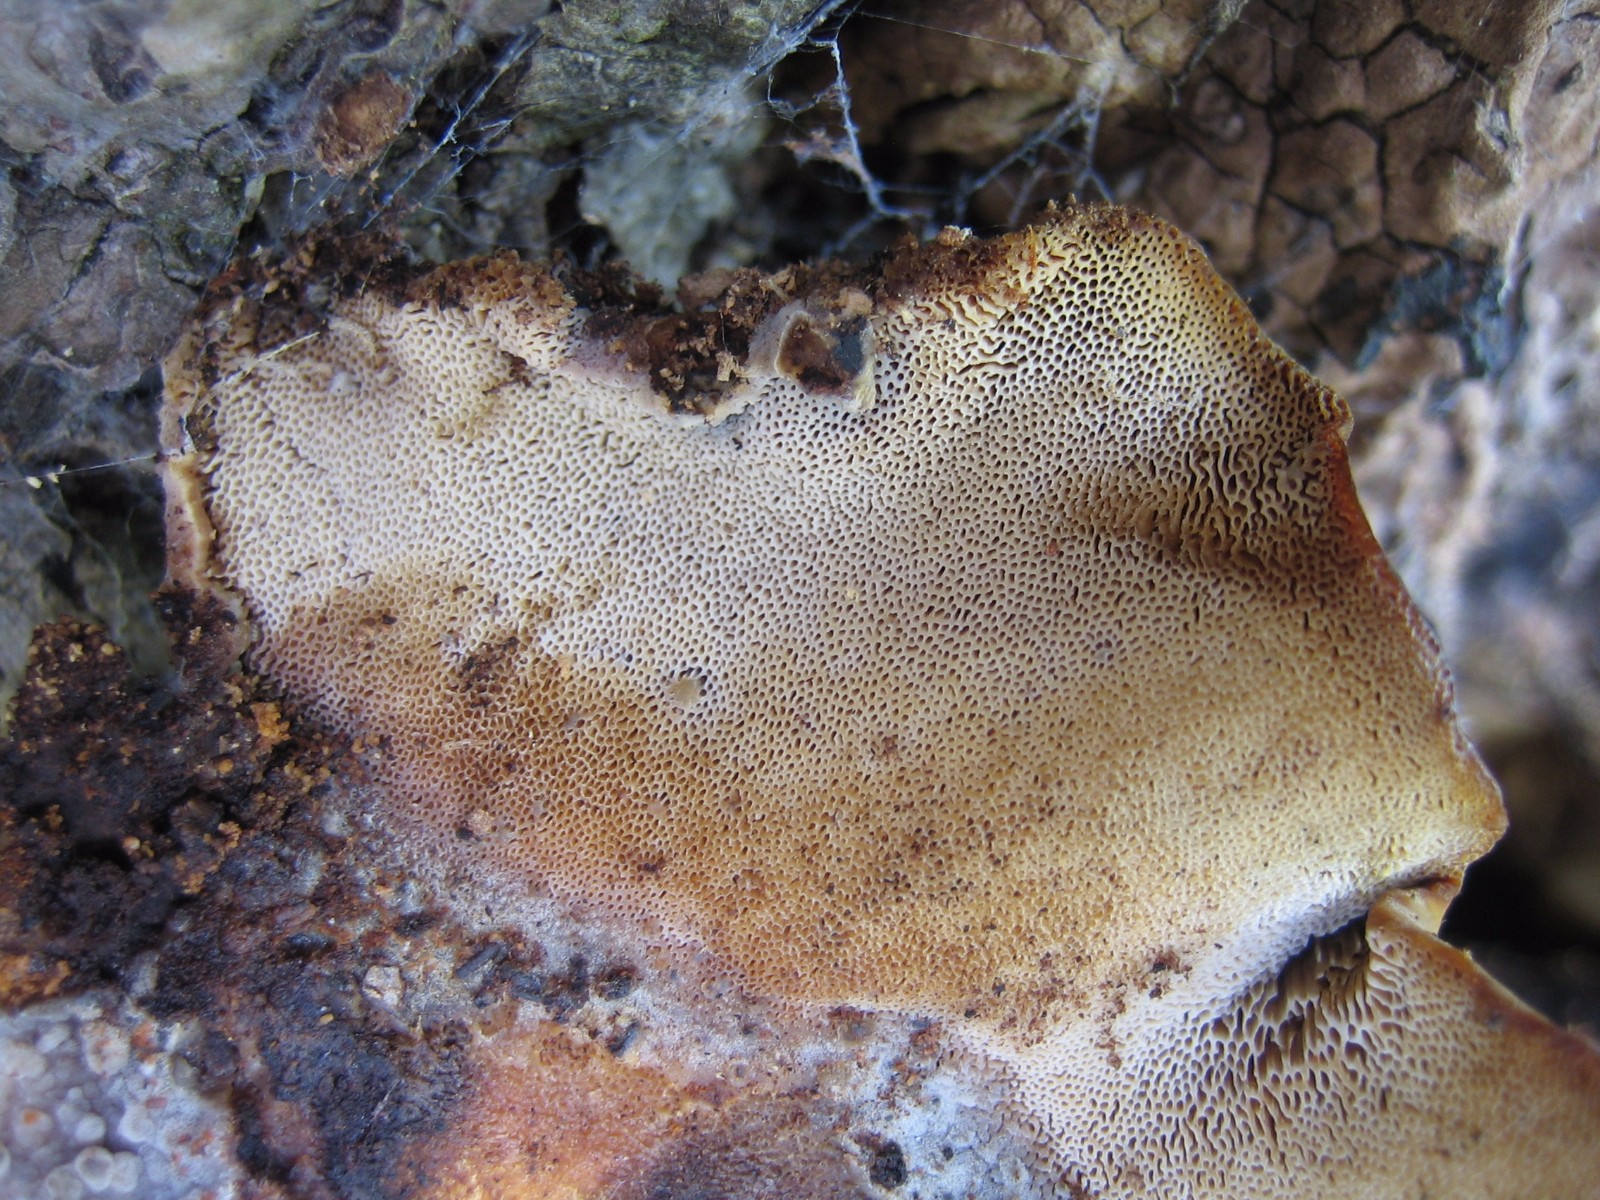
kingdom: Fungi
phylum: Basidiomycota
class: Agaricomycetes
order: Polyporales
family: Polyporaceae
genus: Cerioporus
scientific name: Cerioporus varius
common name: foranderlig stilkporesvamp
